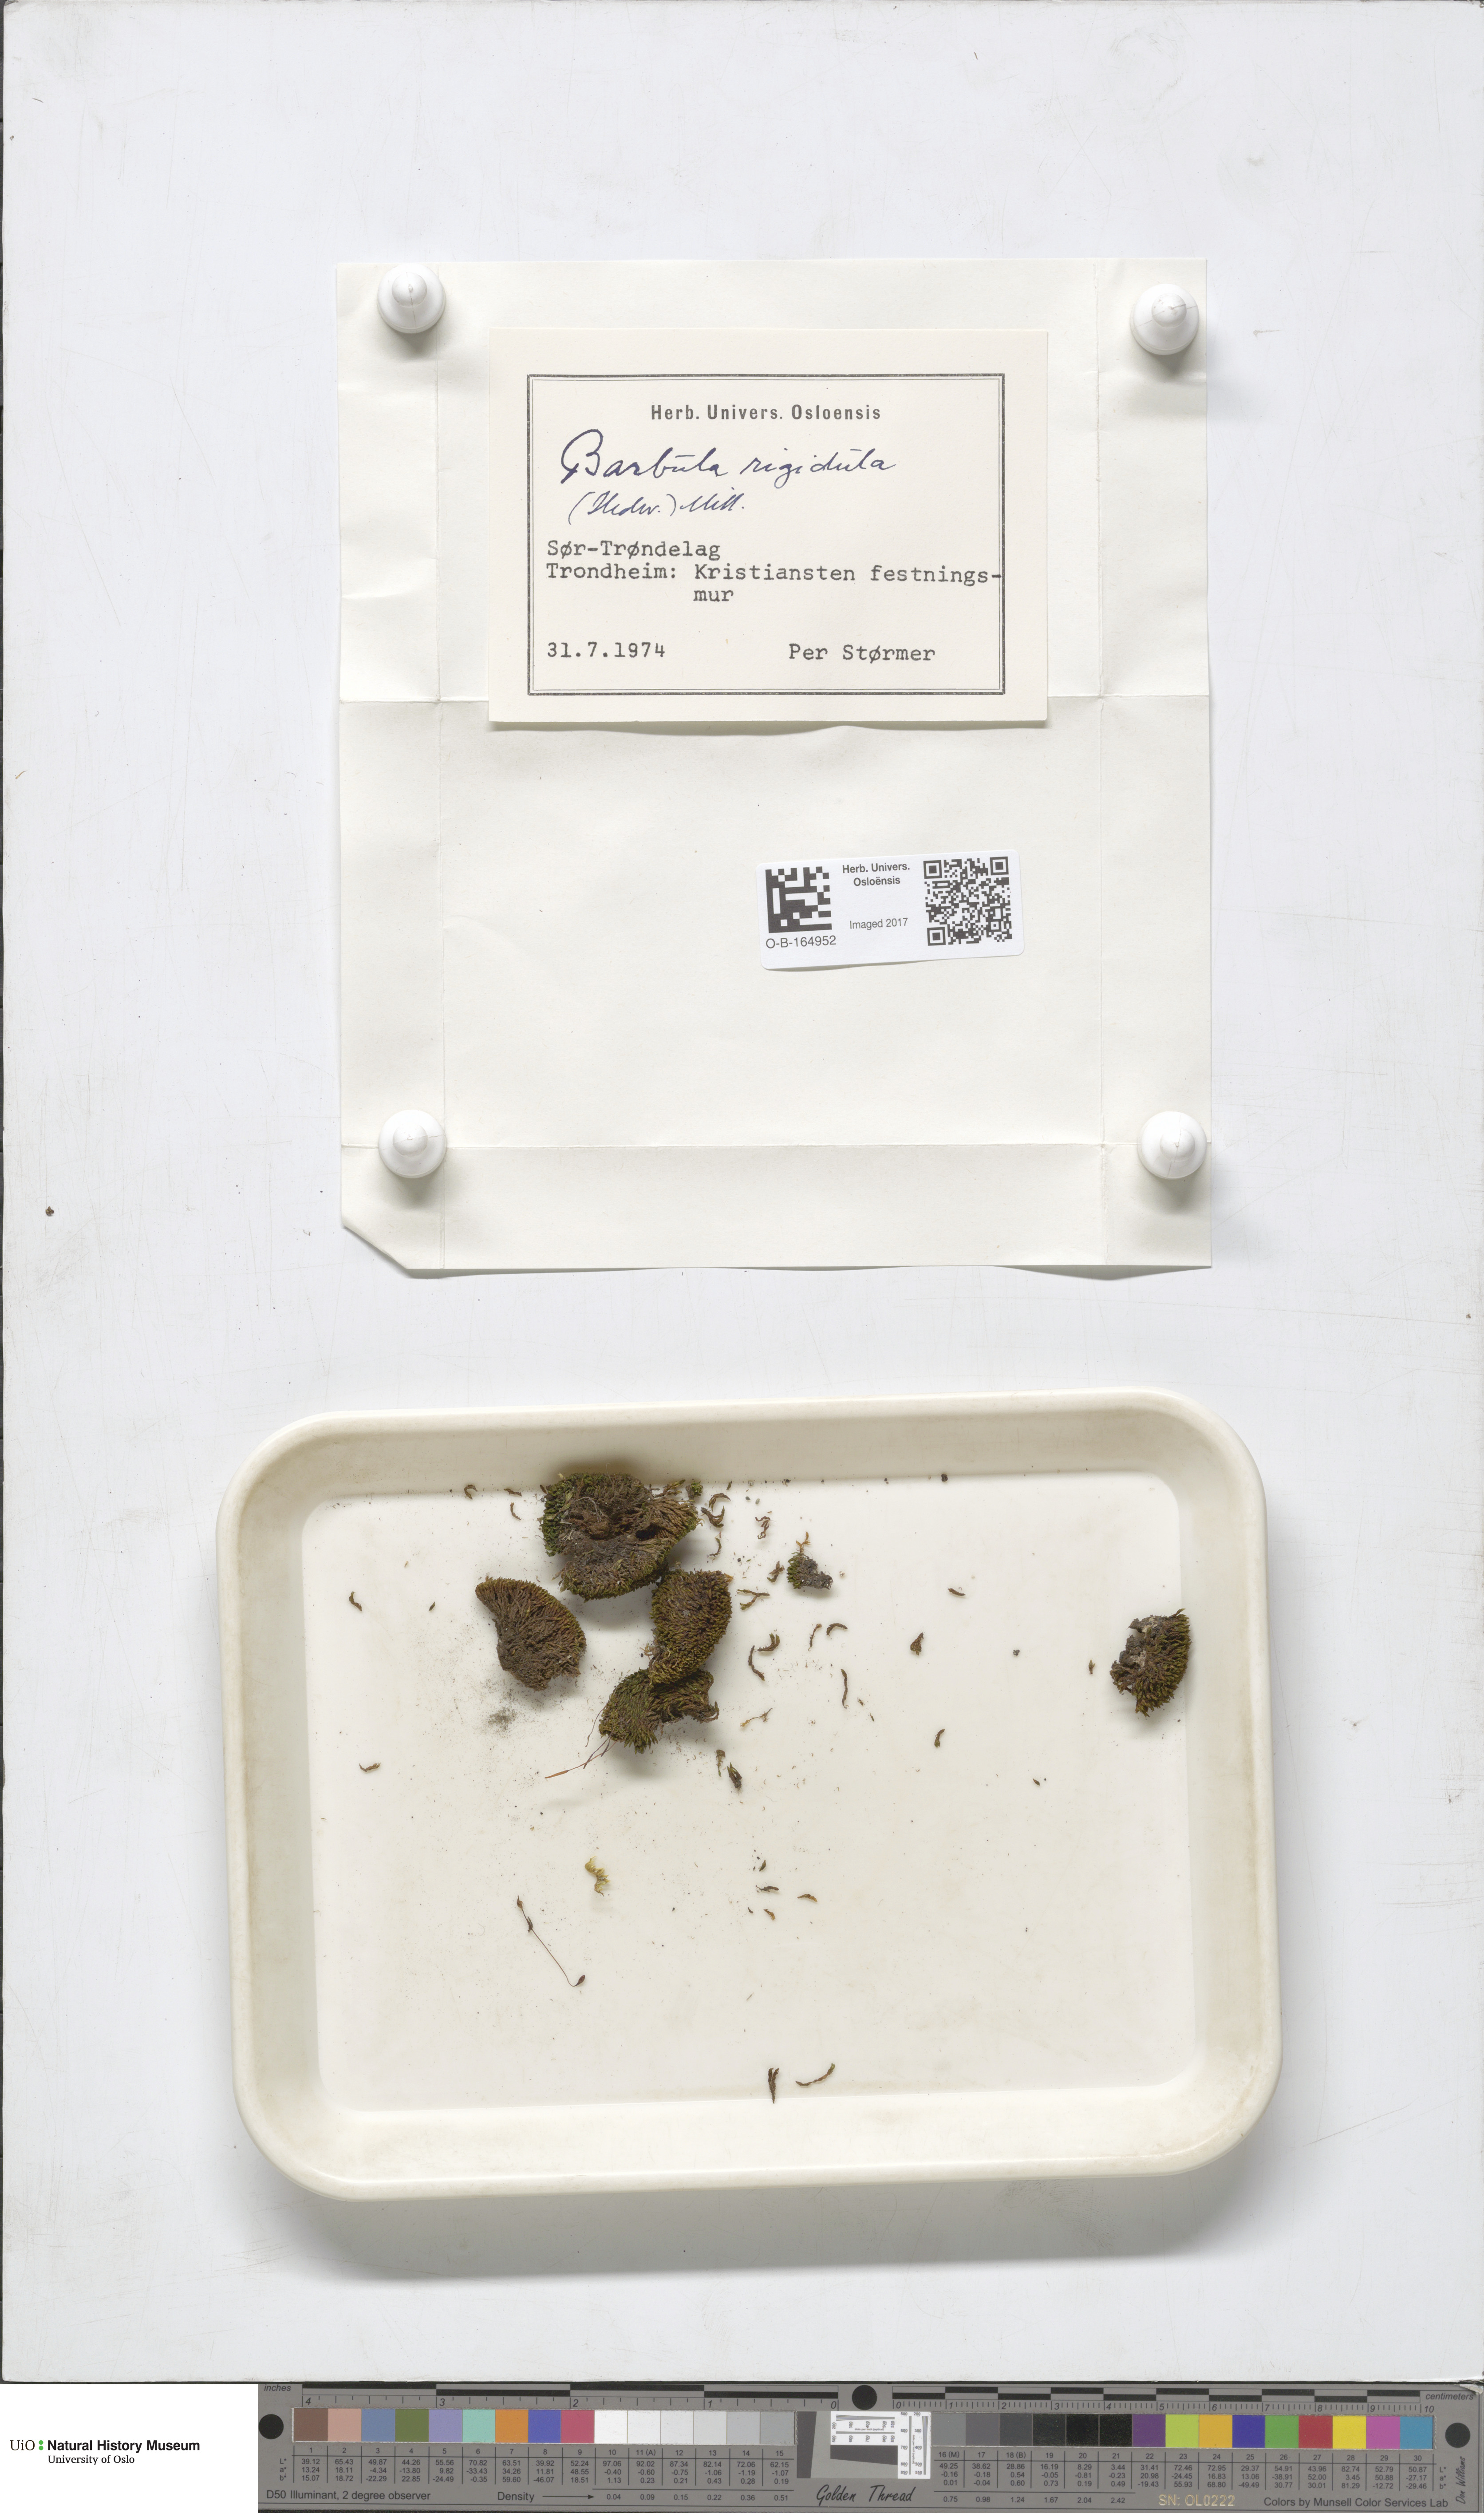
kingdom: Plantae
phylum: Bryophyta
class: Bryopsida
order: Pottiales
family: Pottiaceae
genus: Didymodon
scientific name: Didymodon rigidulus
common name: Rigid beard-moss
